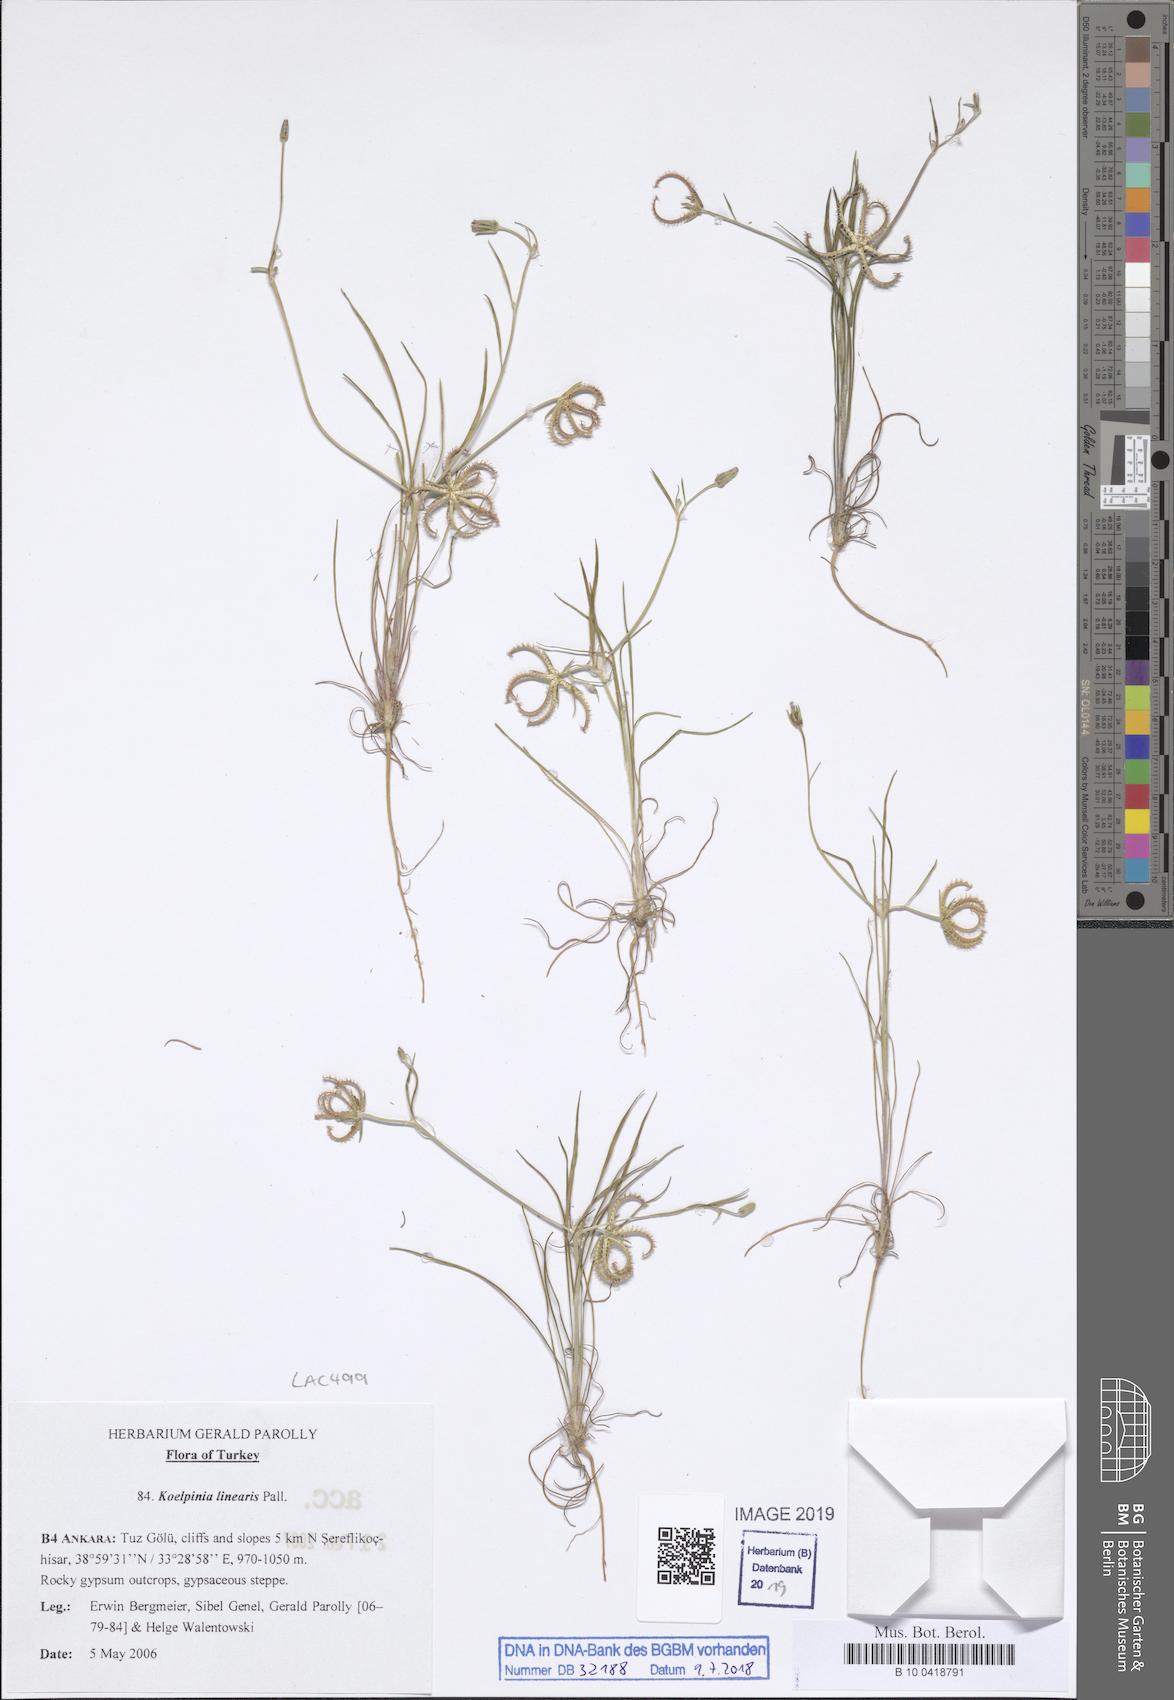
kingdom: Plantae
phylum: Tracheophyta
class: Magnoliopsida
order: Asterales
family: Asteraceae
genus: Koelpinia
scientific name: Koelpinia linearis
